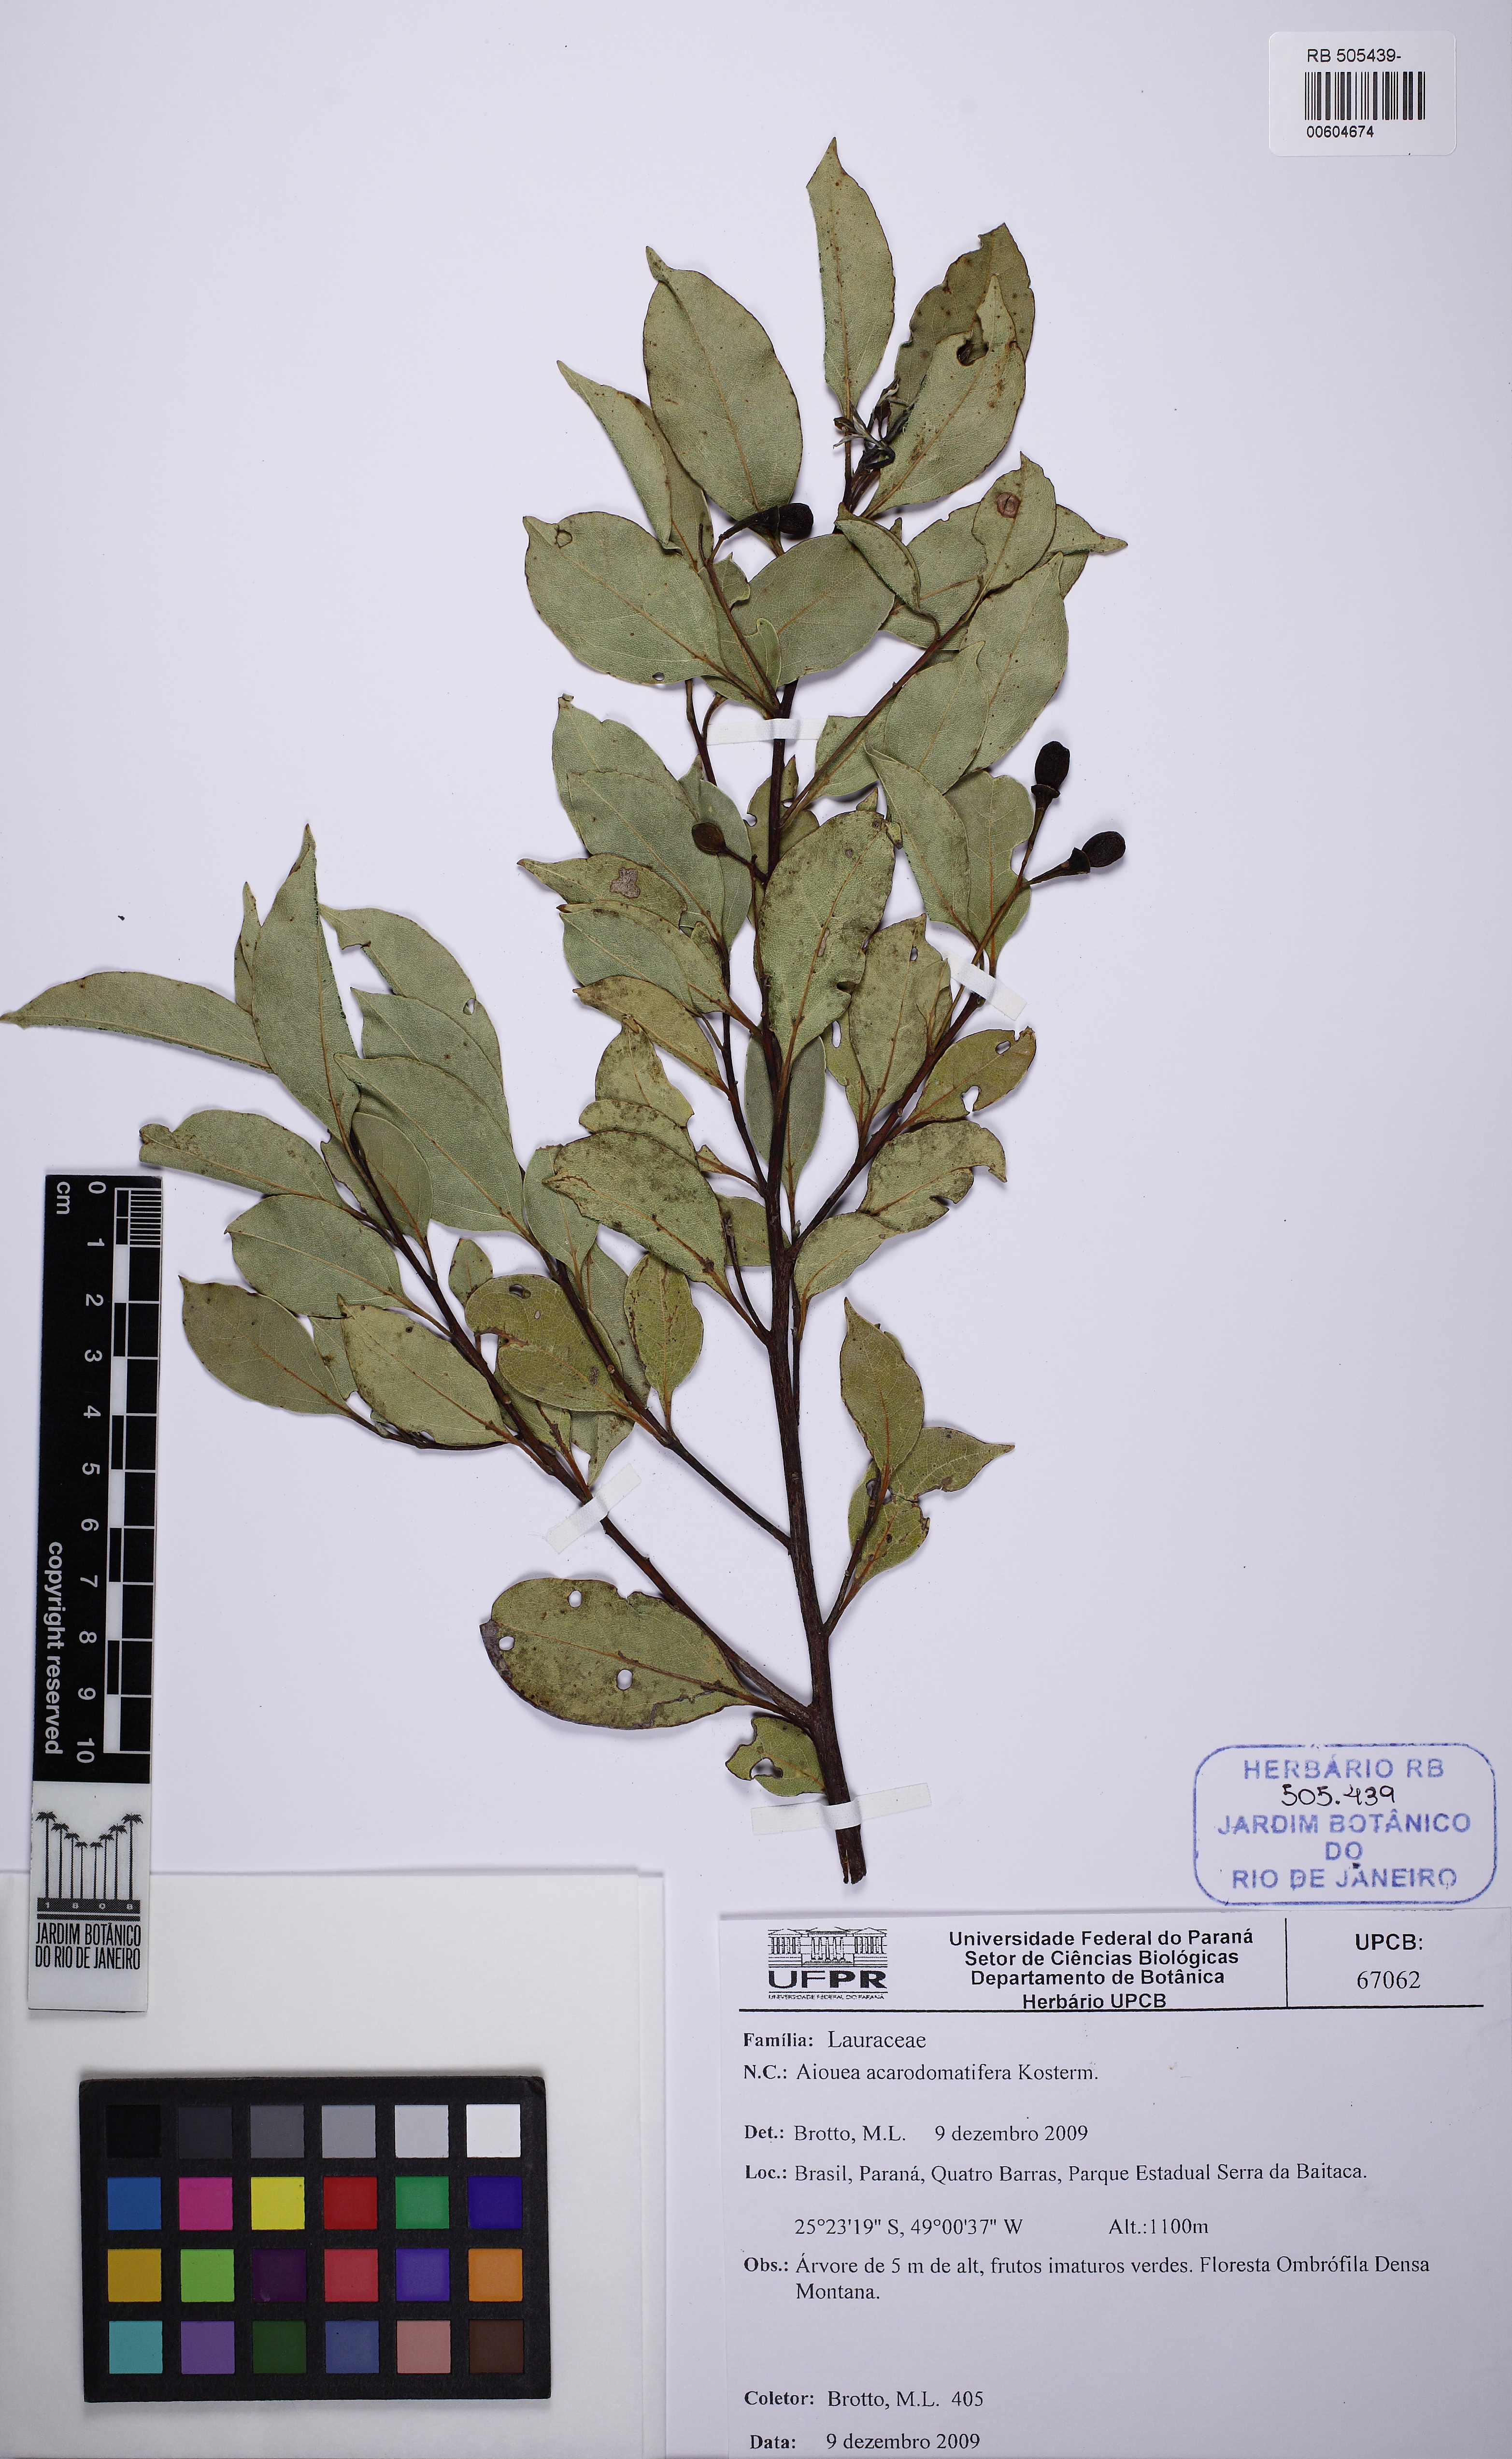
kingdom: Plantae
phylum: Tracheophyta
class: Magnoliopsida
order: Laurales
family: Lauraceae
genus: Aiouea
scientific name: Aiouea acarodomatifera
